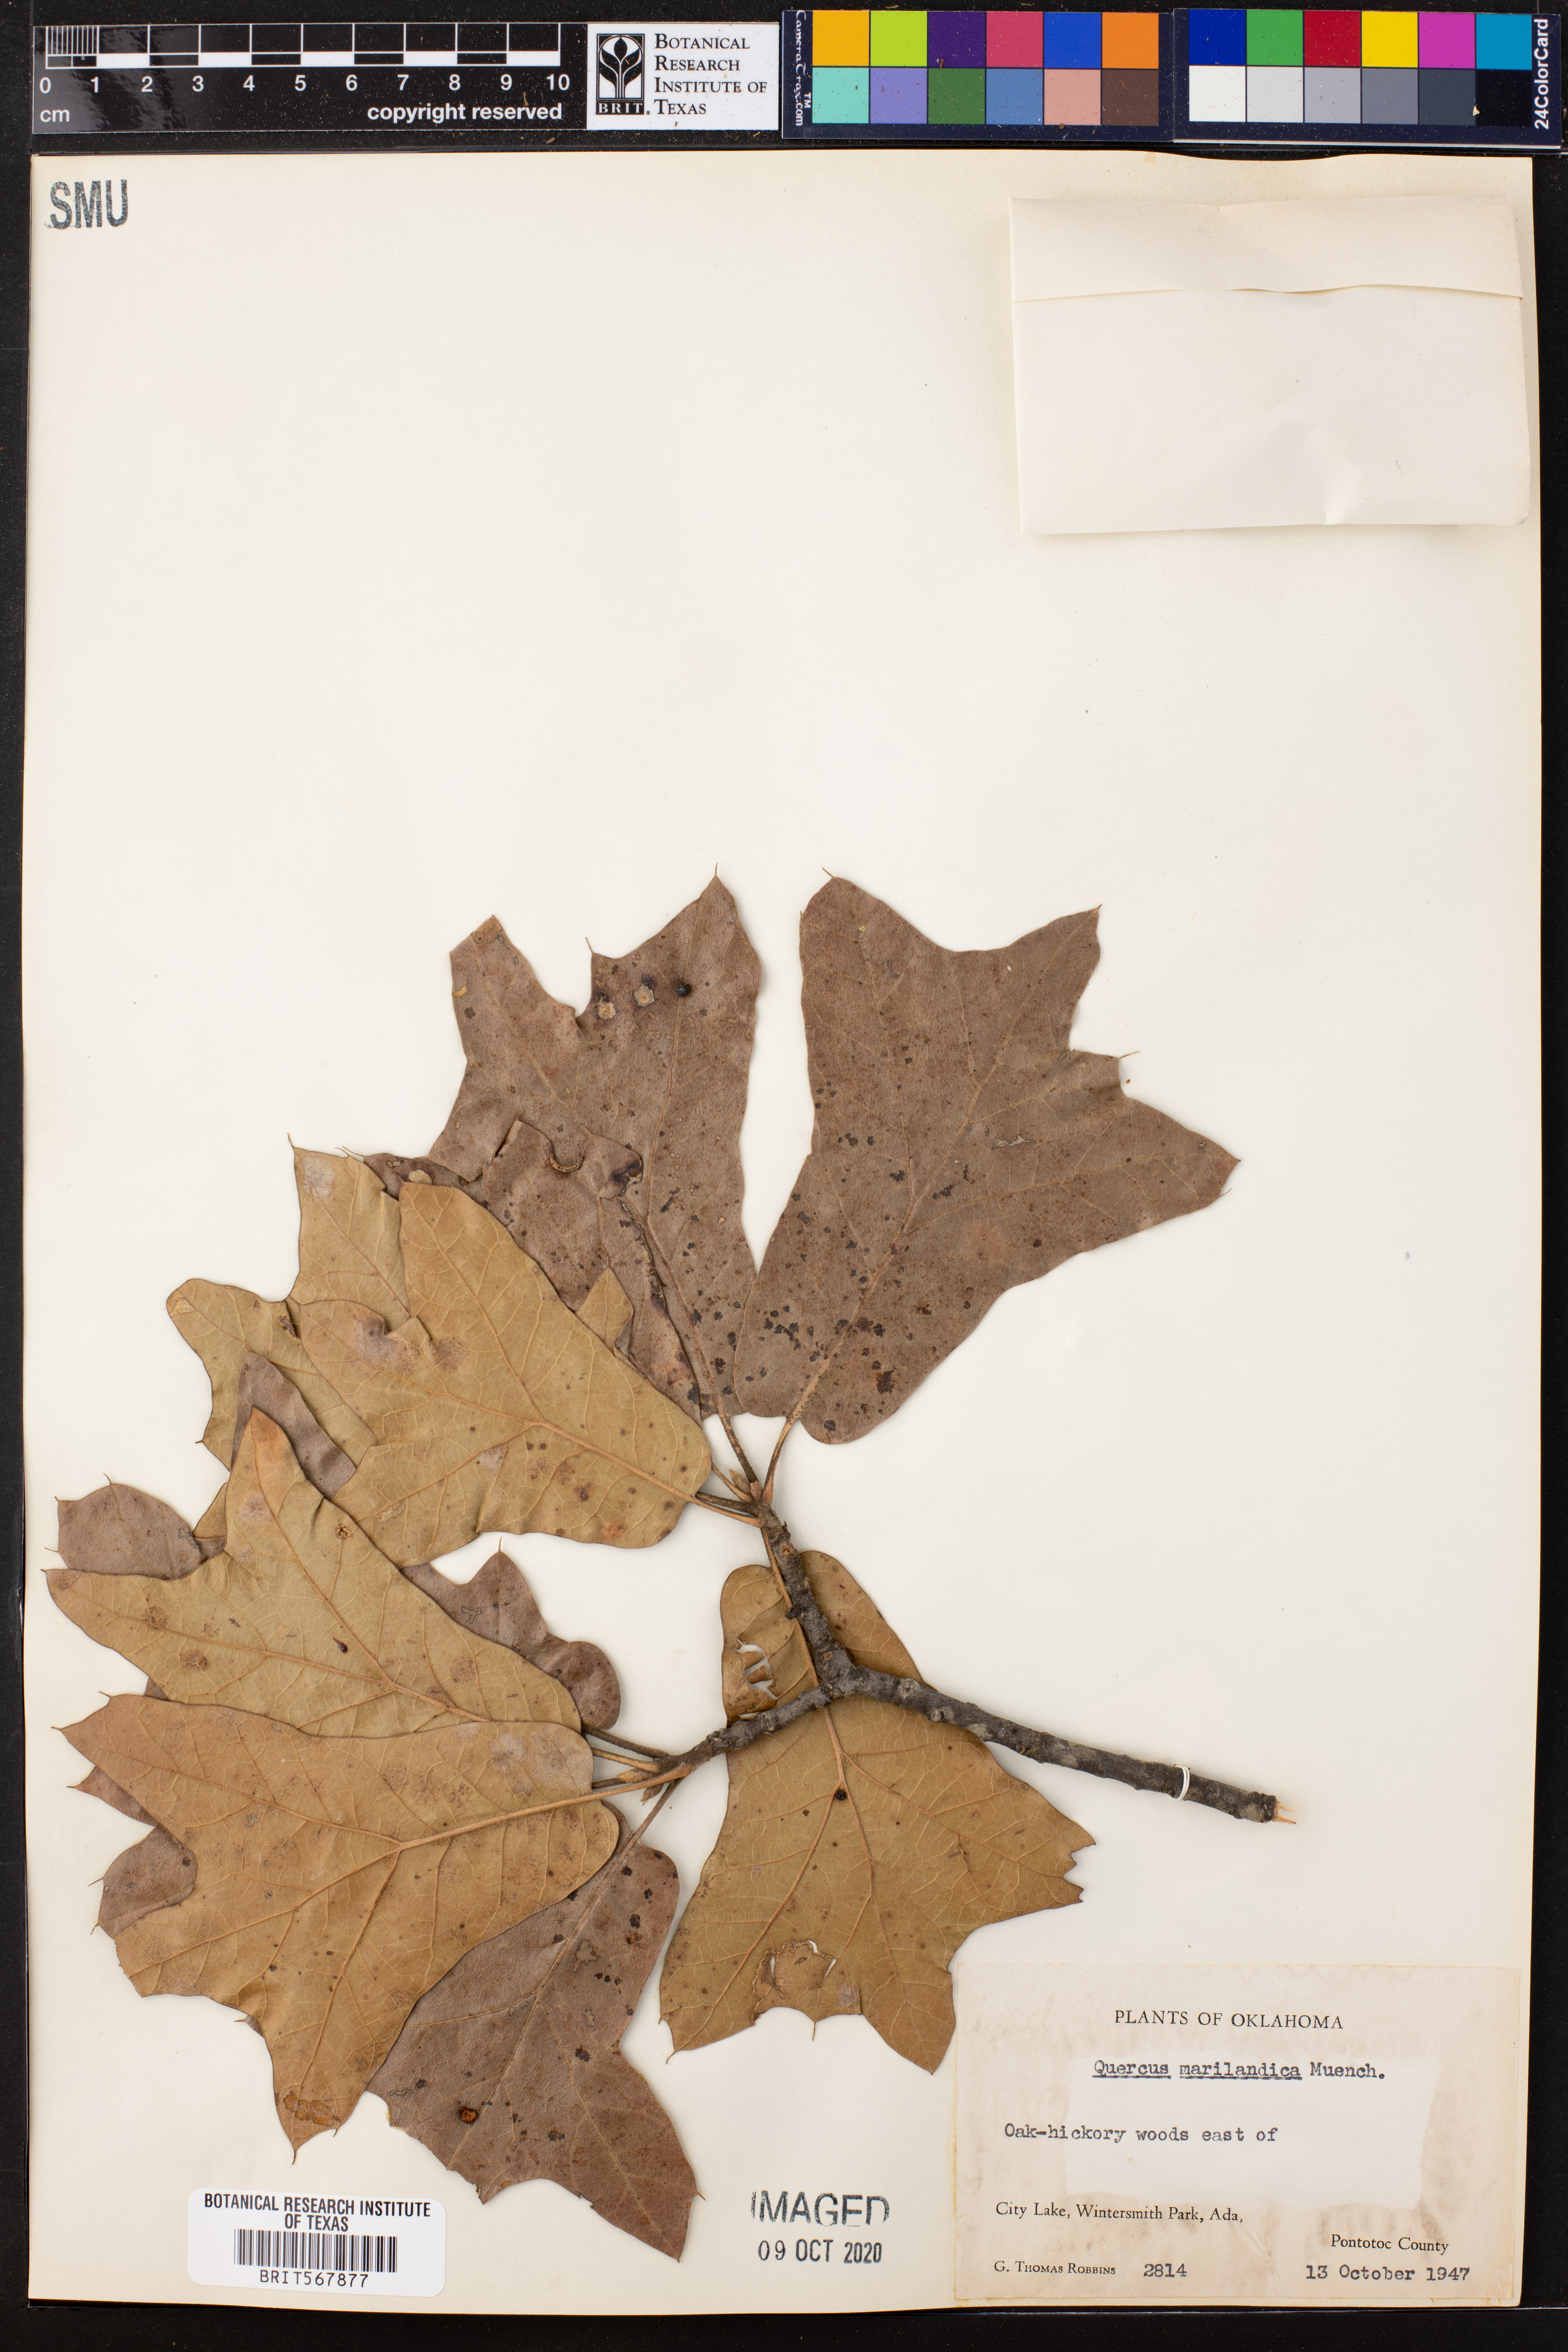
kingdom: Plantae
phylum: Tracheophyta
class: Magnoliopsida
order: Fagales
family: Fagaceae
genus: Quercus
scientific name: Quercus marilandica
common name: Blackjack oak
